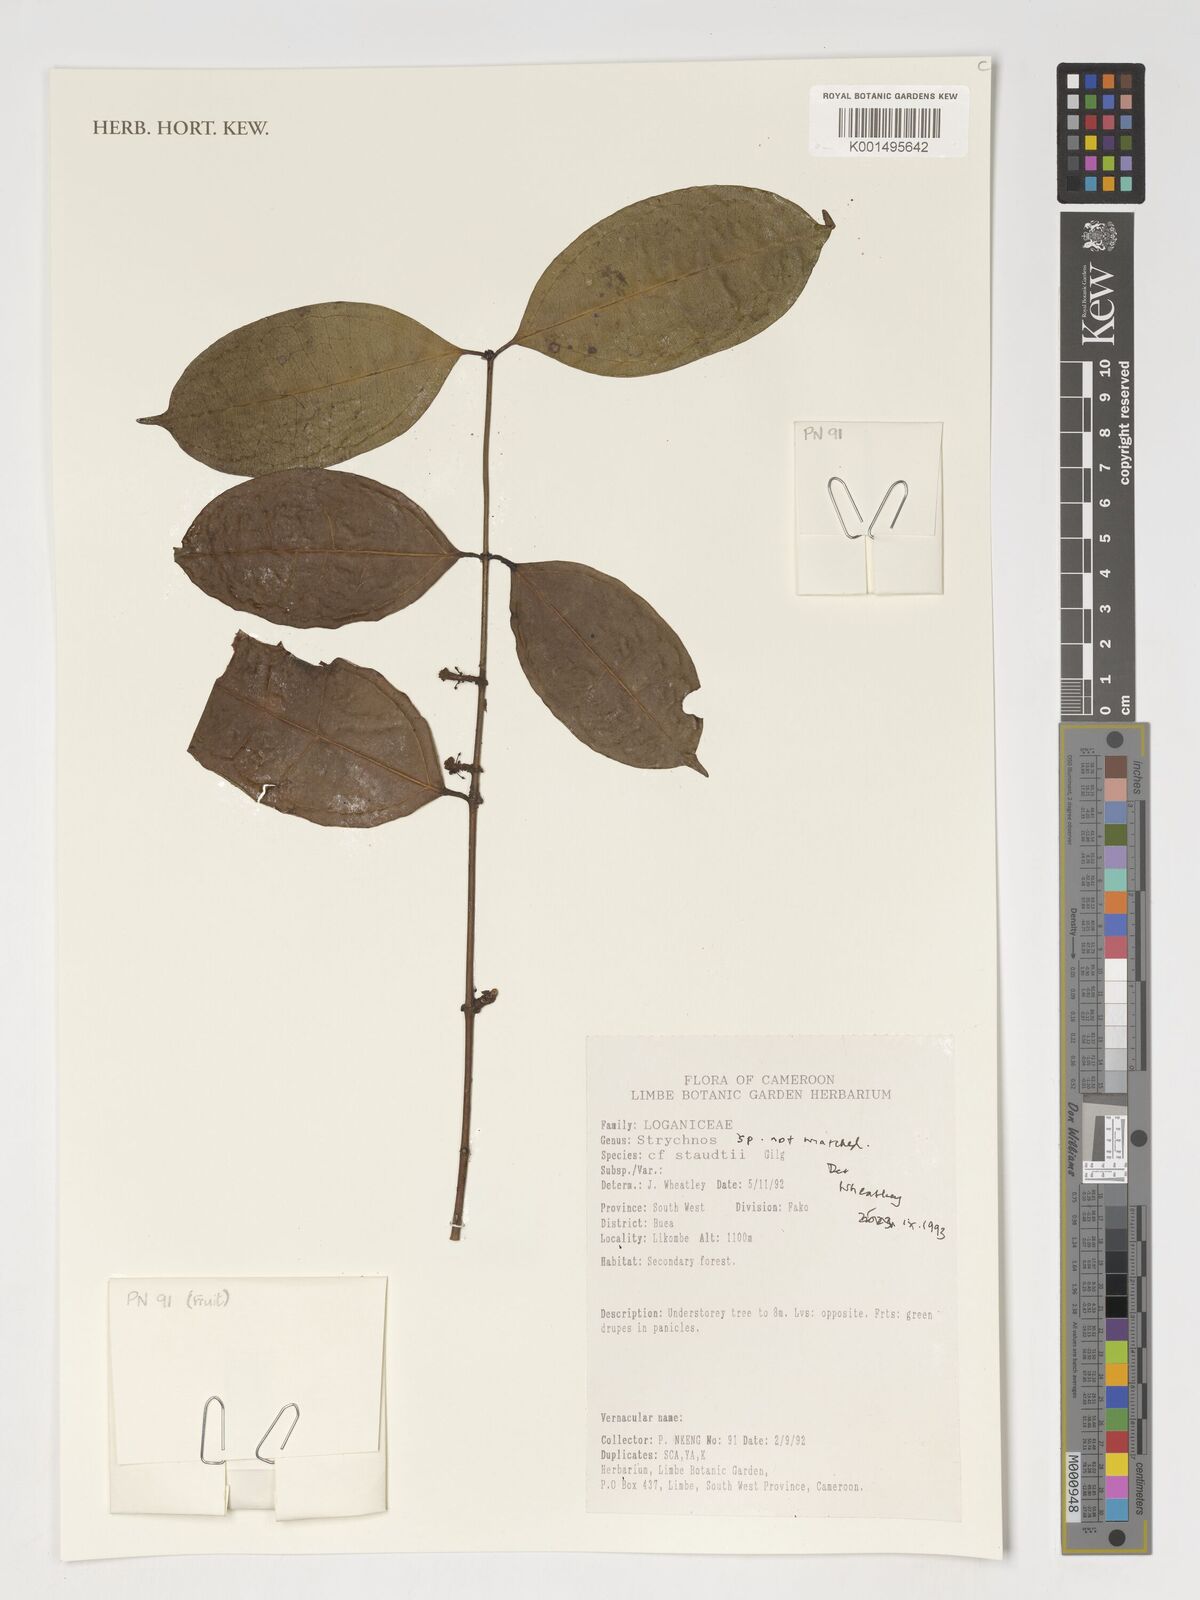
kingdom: Plantae
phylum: Tracheophyta
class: Magnoliopsida
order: Gentianales
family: Loganiaceae
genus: Strychnos
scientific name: Strychnos
